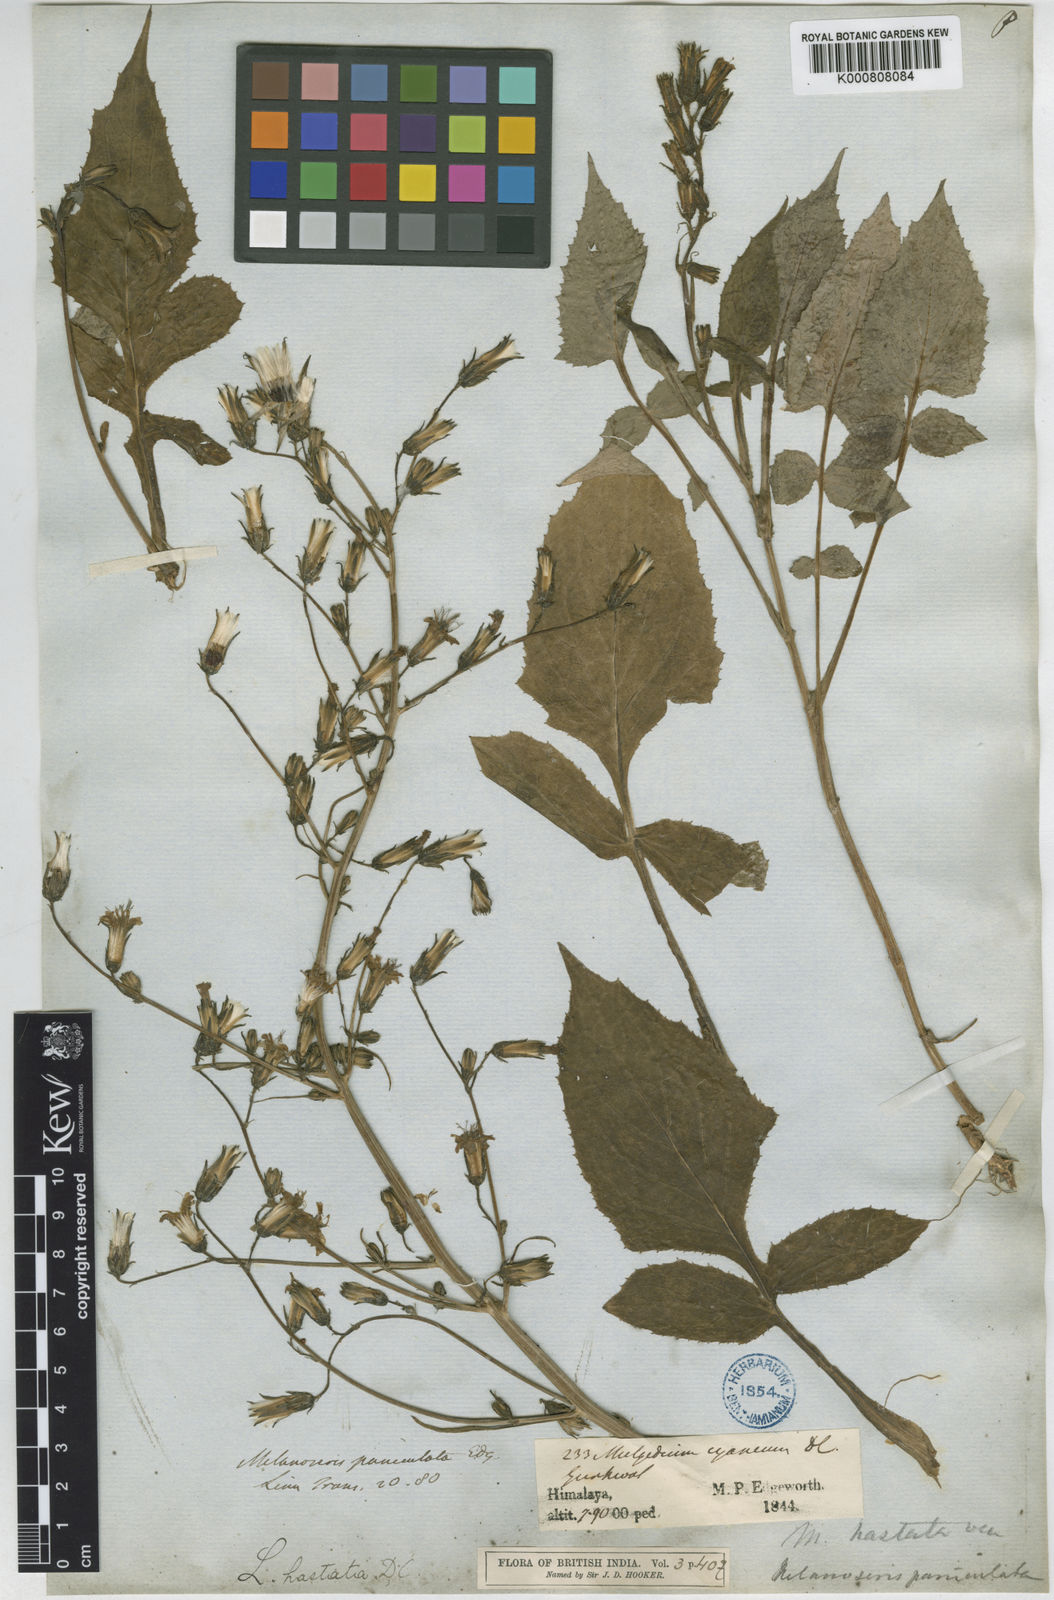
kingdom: Plantae
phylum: Tracheophyta
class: Magnoliopsida
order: Asterales
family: Asteraceae
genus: Melanoseris
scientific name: Melanoseris cyanea
